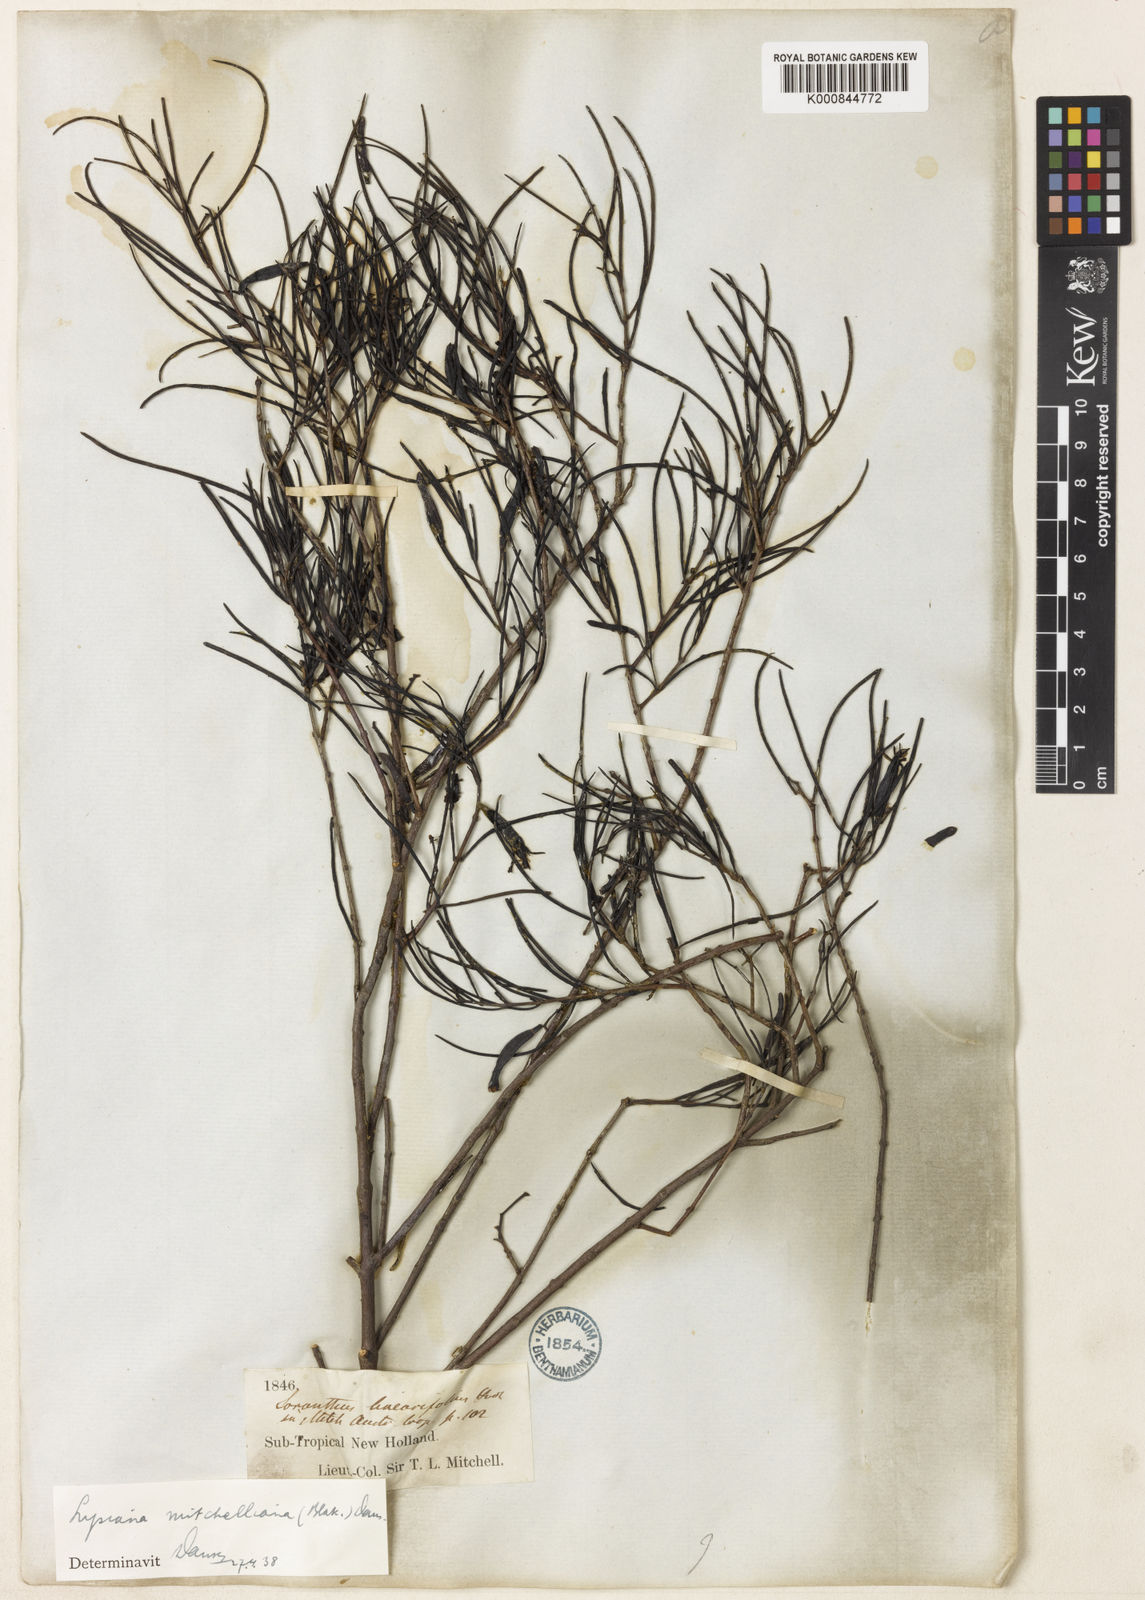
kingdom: Plantae
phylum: Tracheophyta
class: Magnoliopsida
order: Santalales
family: Loranthaceae
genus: Lysiana
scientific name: Lysiana linearifolia
